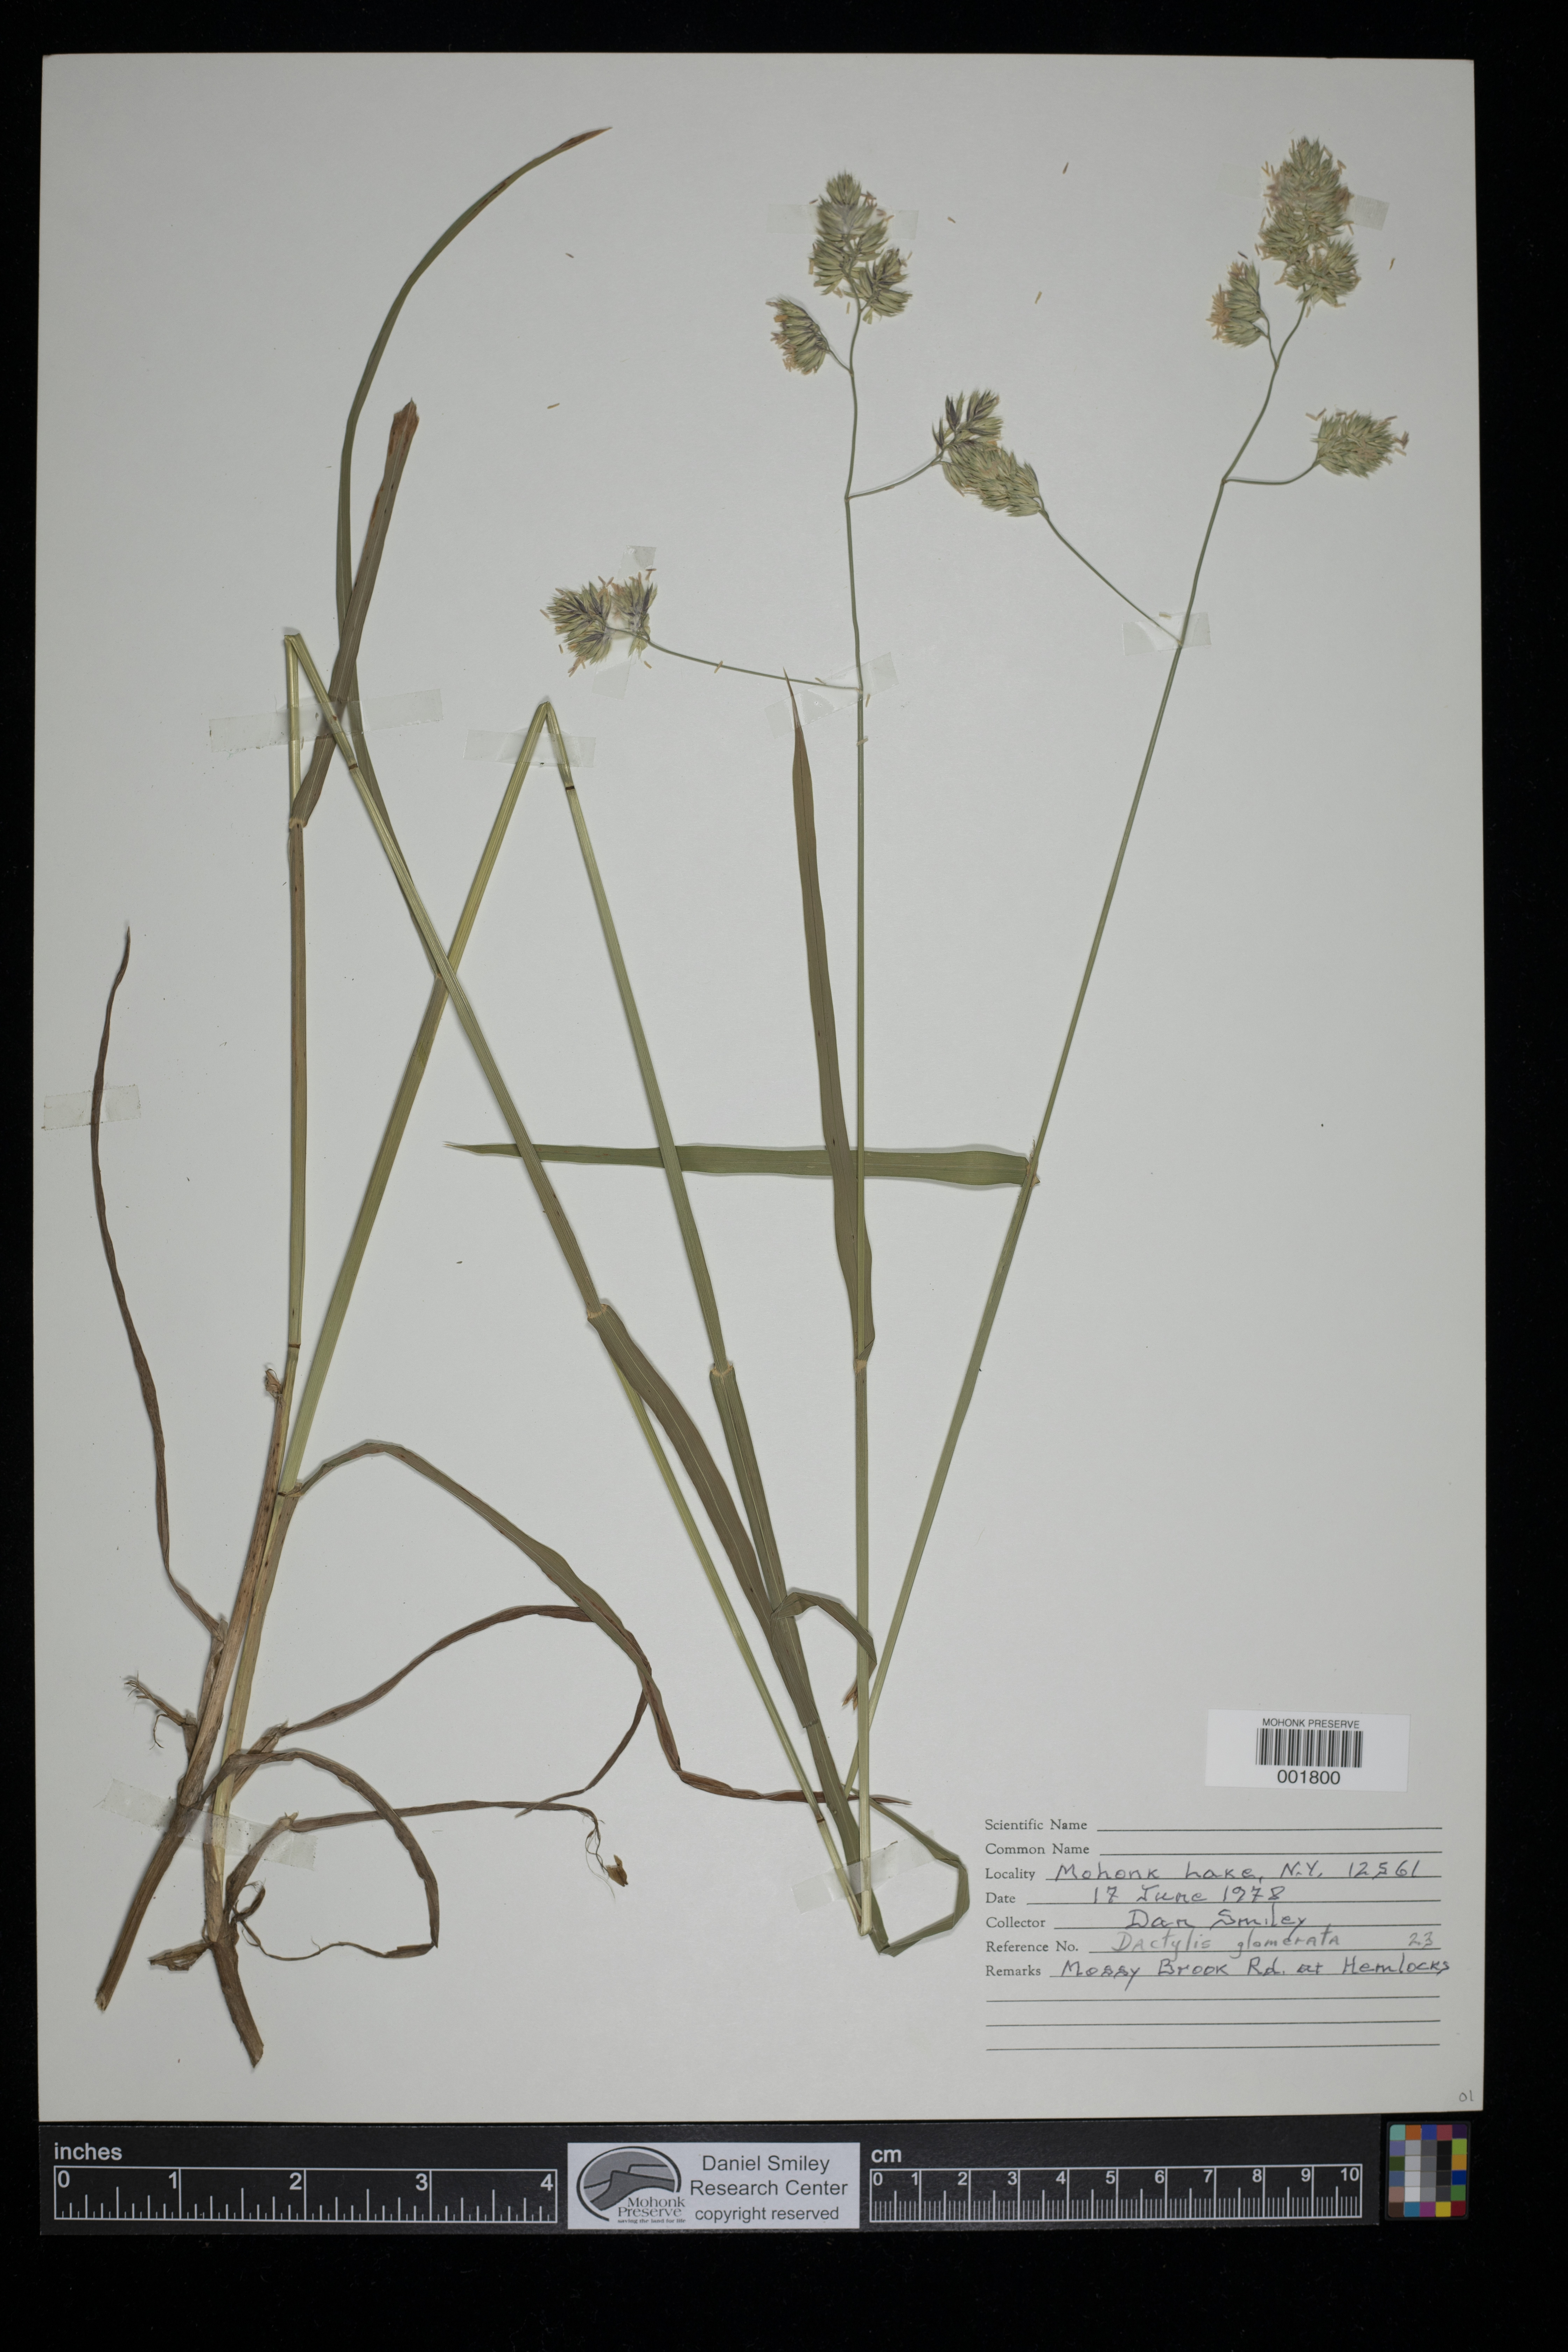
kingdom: Plantae
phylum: Tracheophyta
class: Liliopsida
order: Poales
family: Poaceae
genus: Dactylis
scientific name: Dactylis glomerata
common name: Orchardgrass
